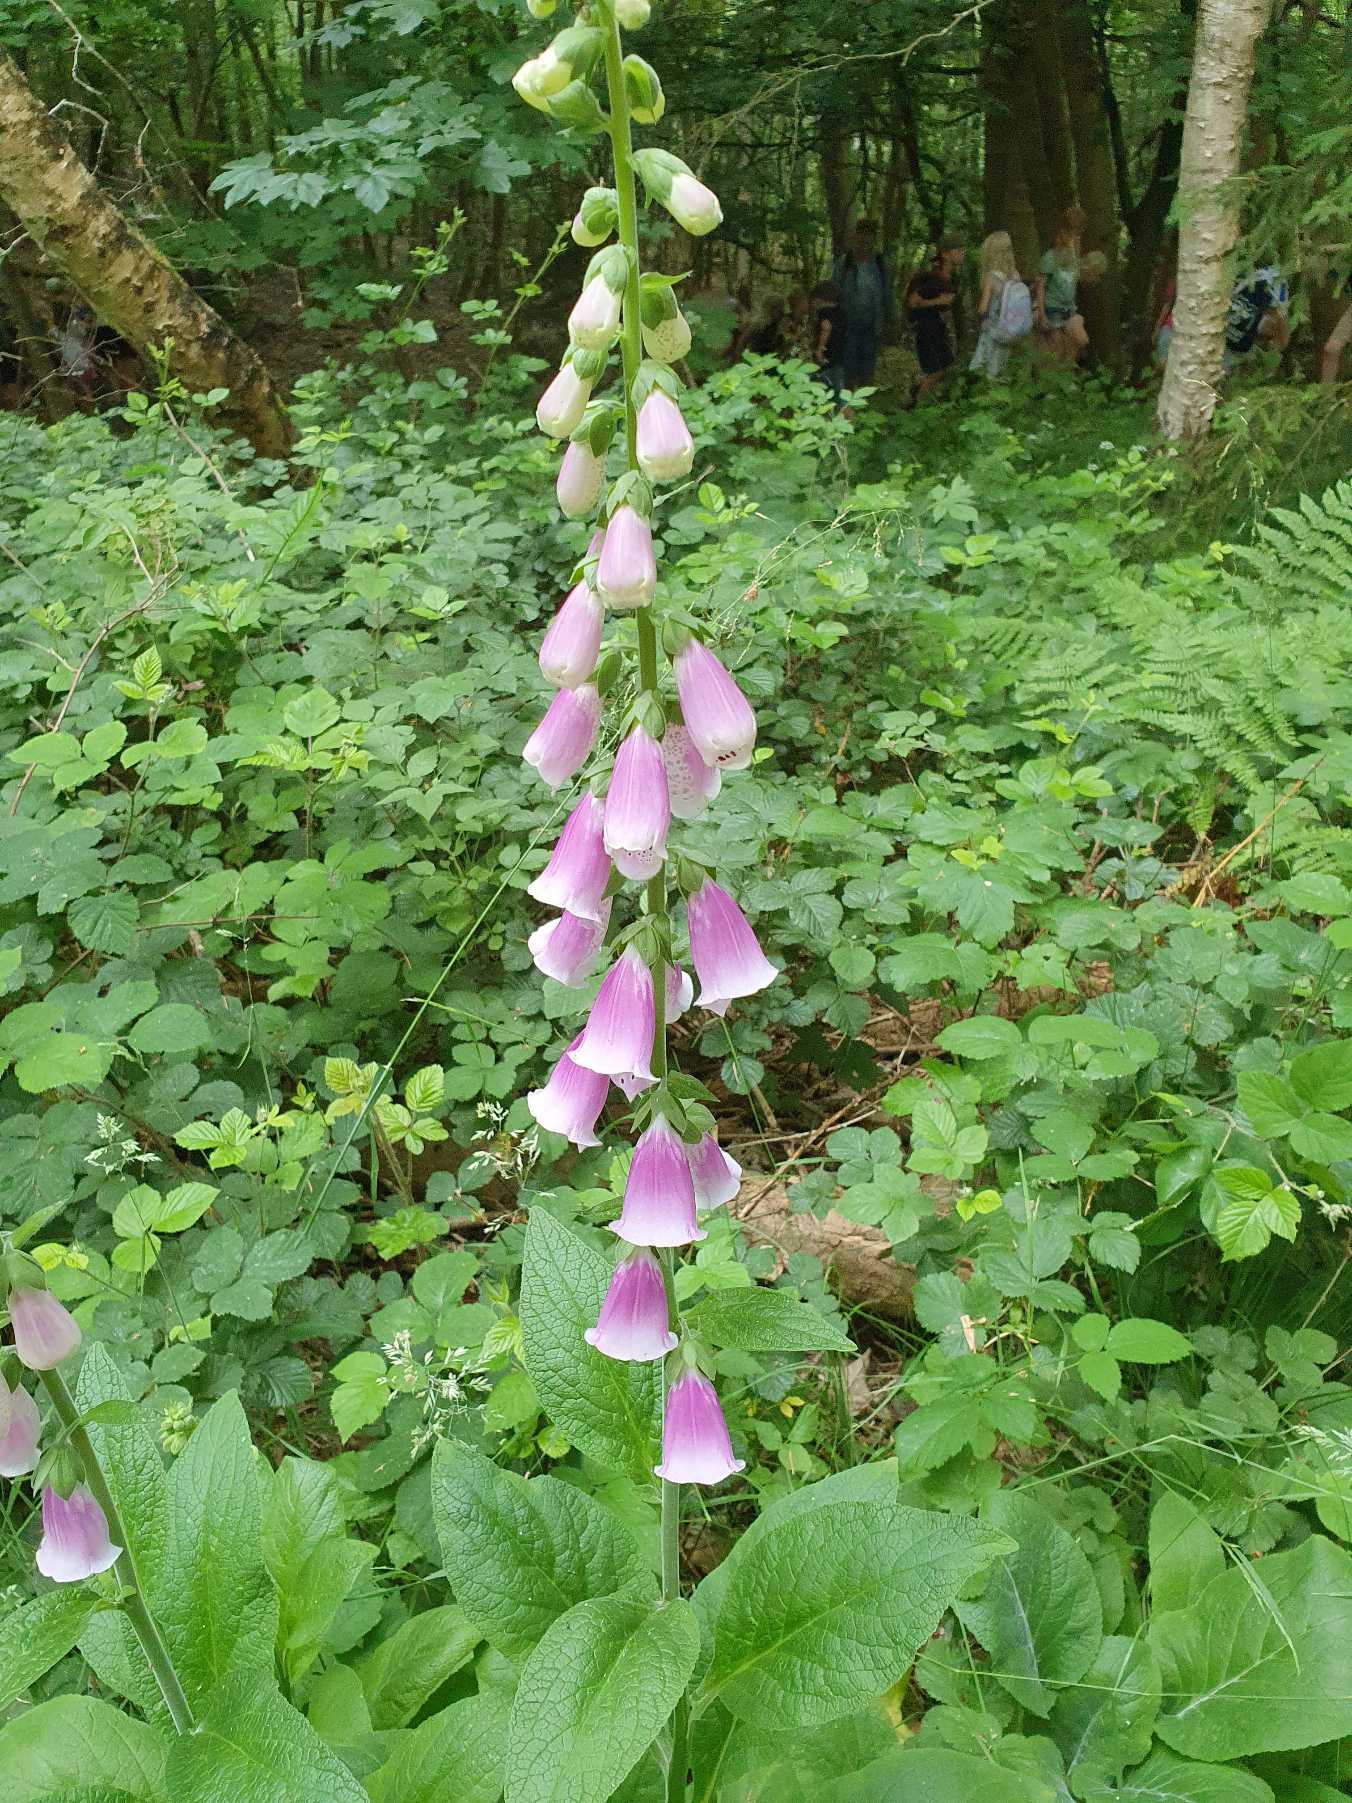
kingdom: Plantae
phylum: Tracheophyta
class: Magnoliopsida
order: Lamiales
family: Plantaginaceae
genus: Digitalis
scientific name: Digitalis purpurea
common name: Almindelig fingerbøl
